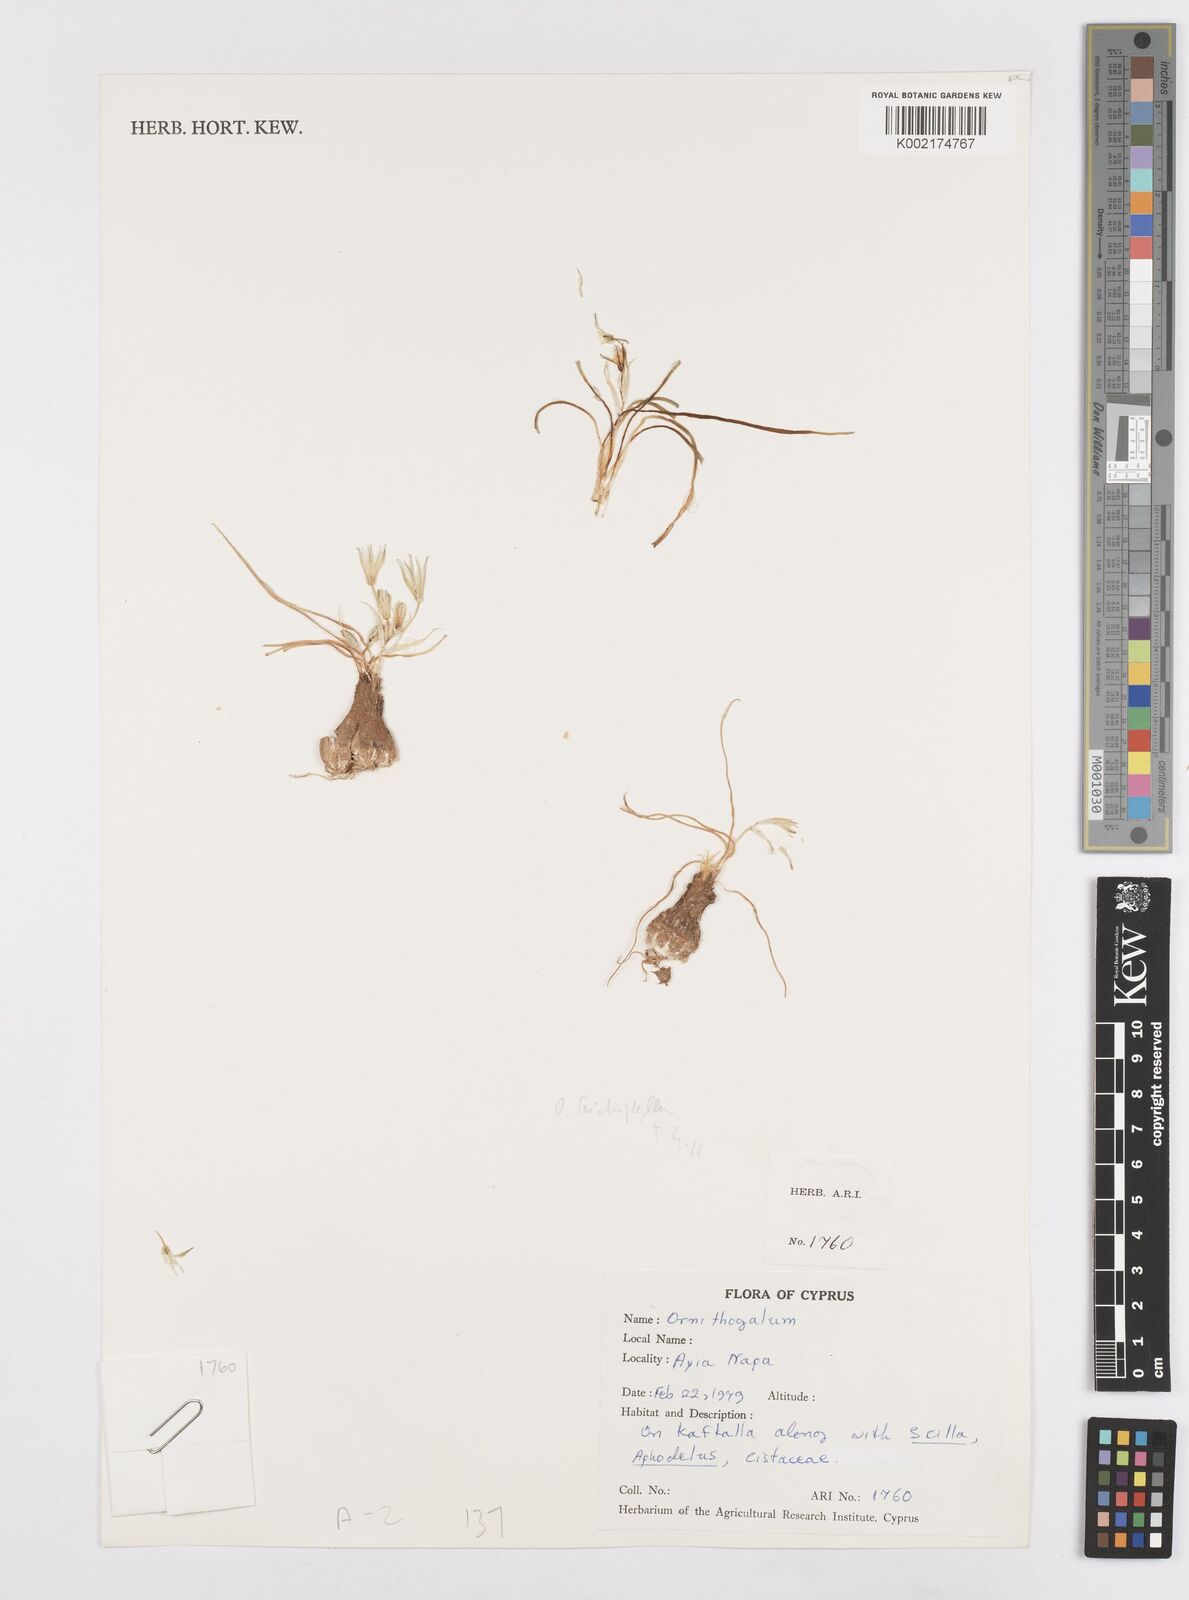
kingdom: Plantae
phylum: Tracheophyta
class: Liliopsida
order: Asparagales
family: Asparagaceae
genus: Ornithogalum
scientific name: Ornithogalum trichophyllum
